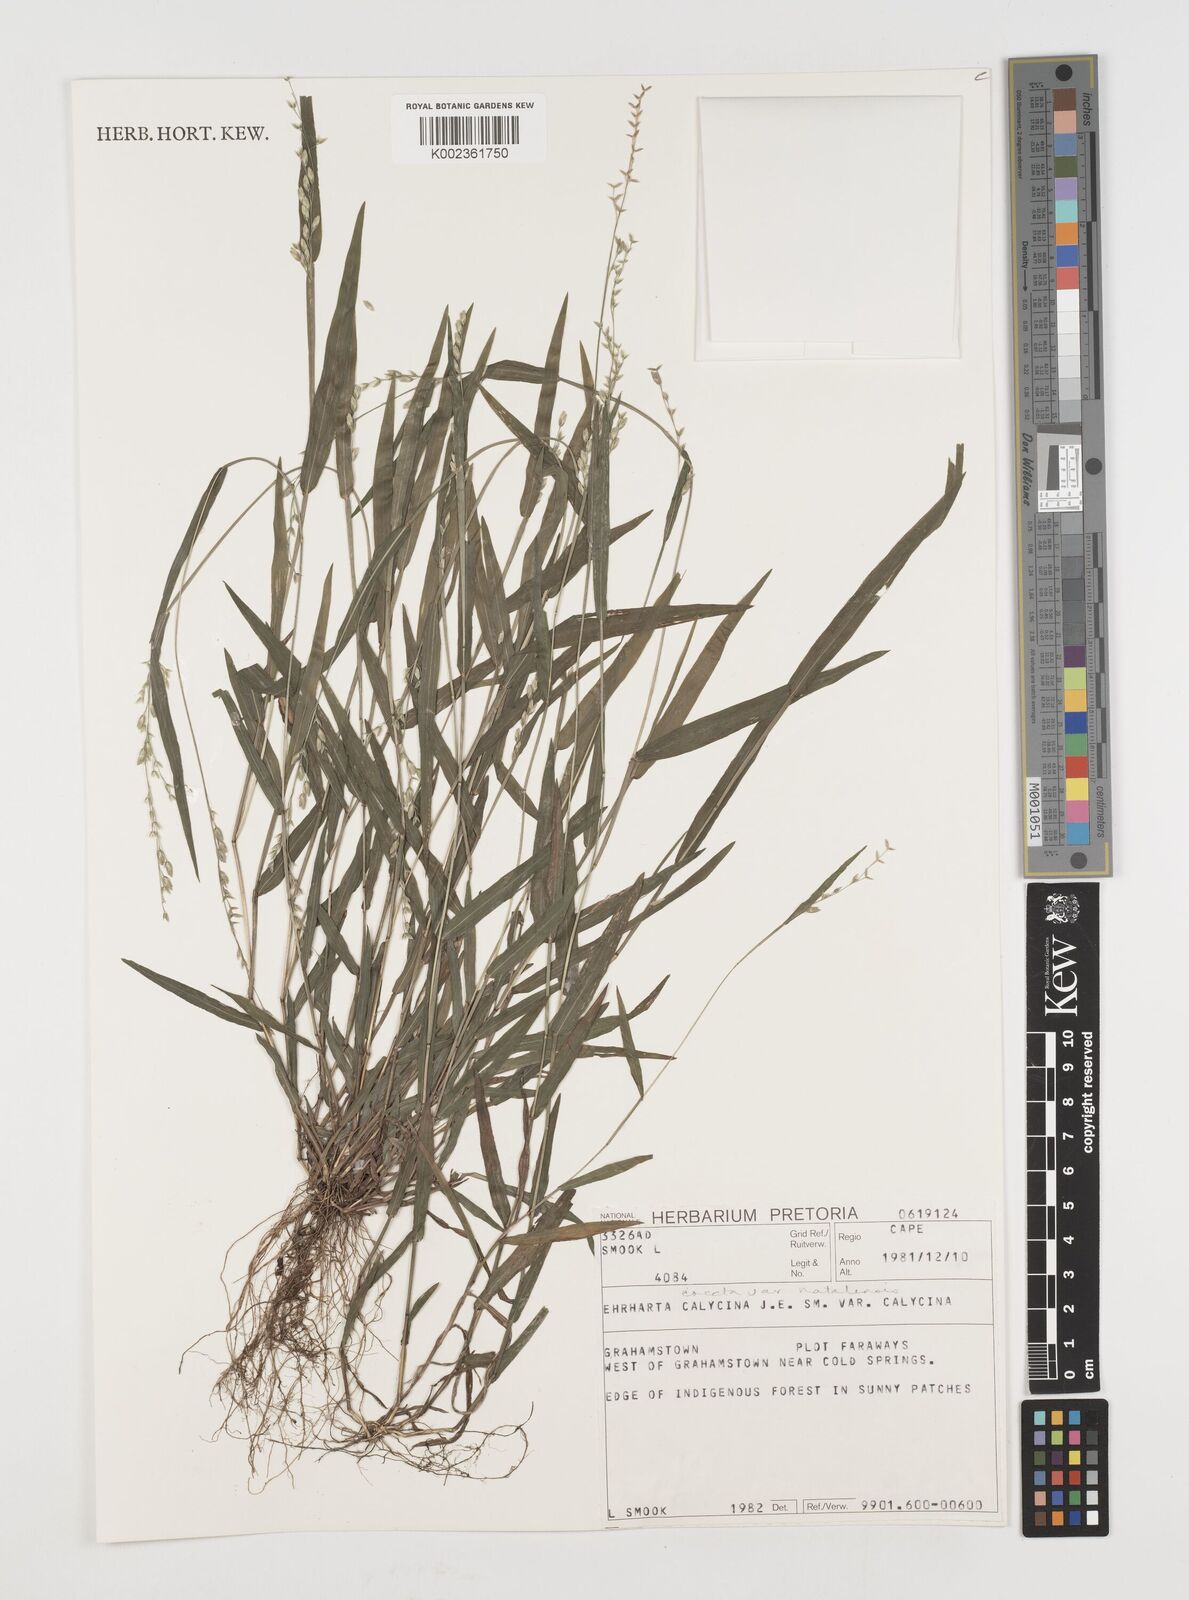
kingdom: Plantae
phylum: Tracheophyta
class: Liliopsida
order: Poales
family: Poaceae
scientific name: Poaceae
